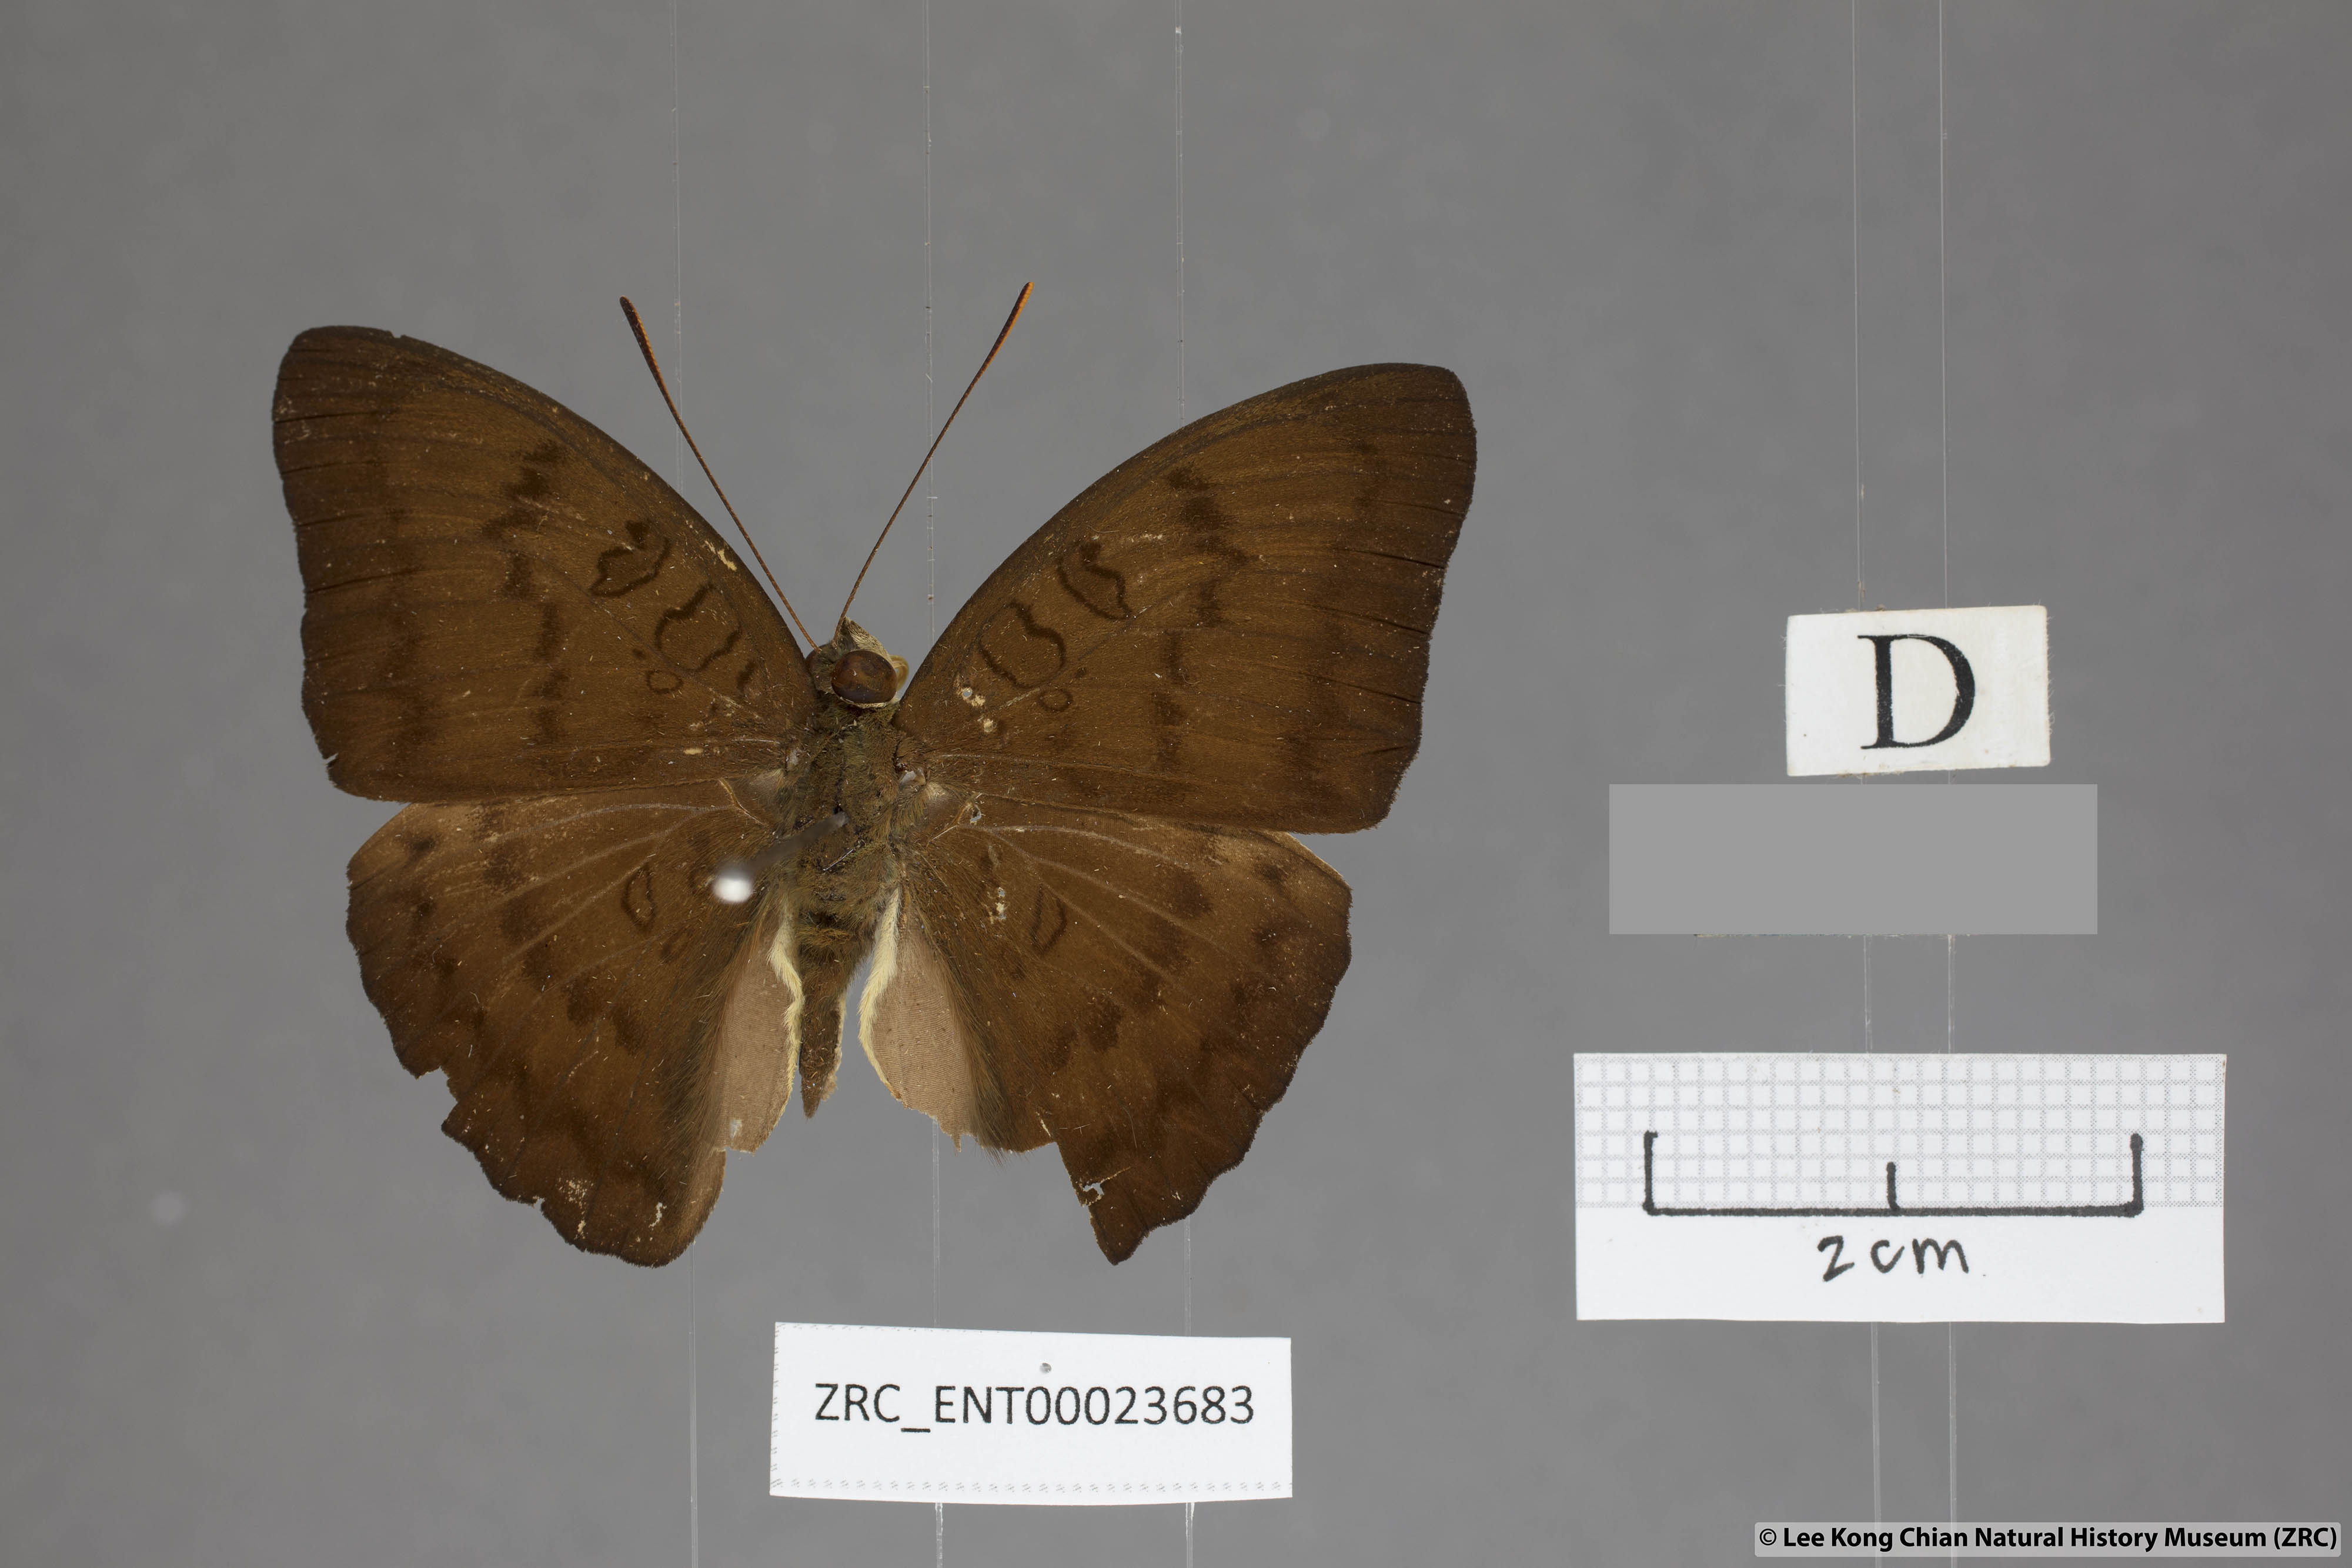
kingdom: Animalia
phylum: Arthropoda
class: Insecta
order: Lepidoptera
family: Nymphalidae
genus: Euthalia
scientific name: Euthalia kanda
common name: Yellow baron
